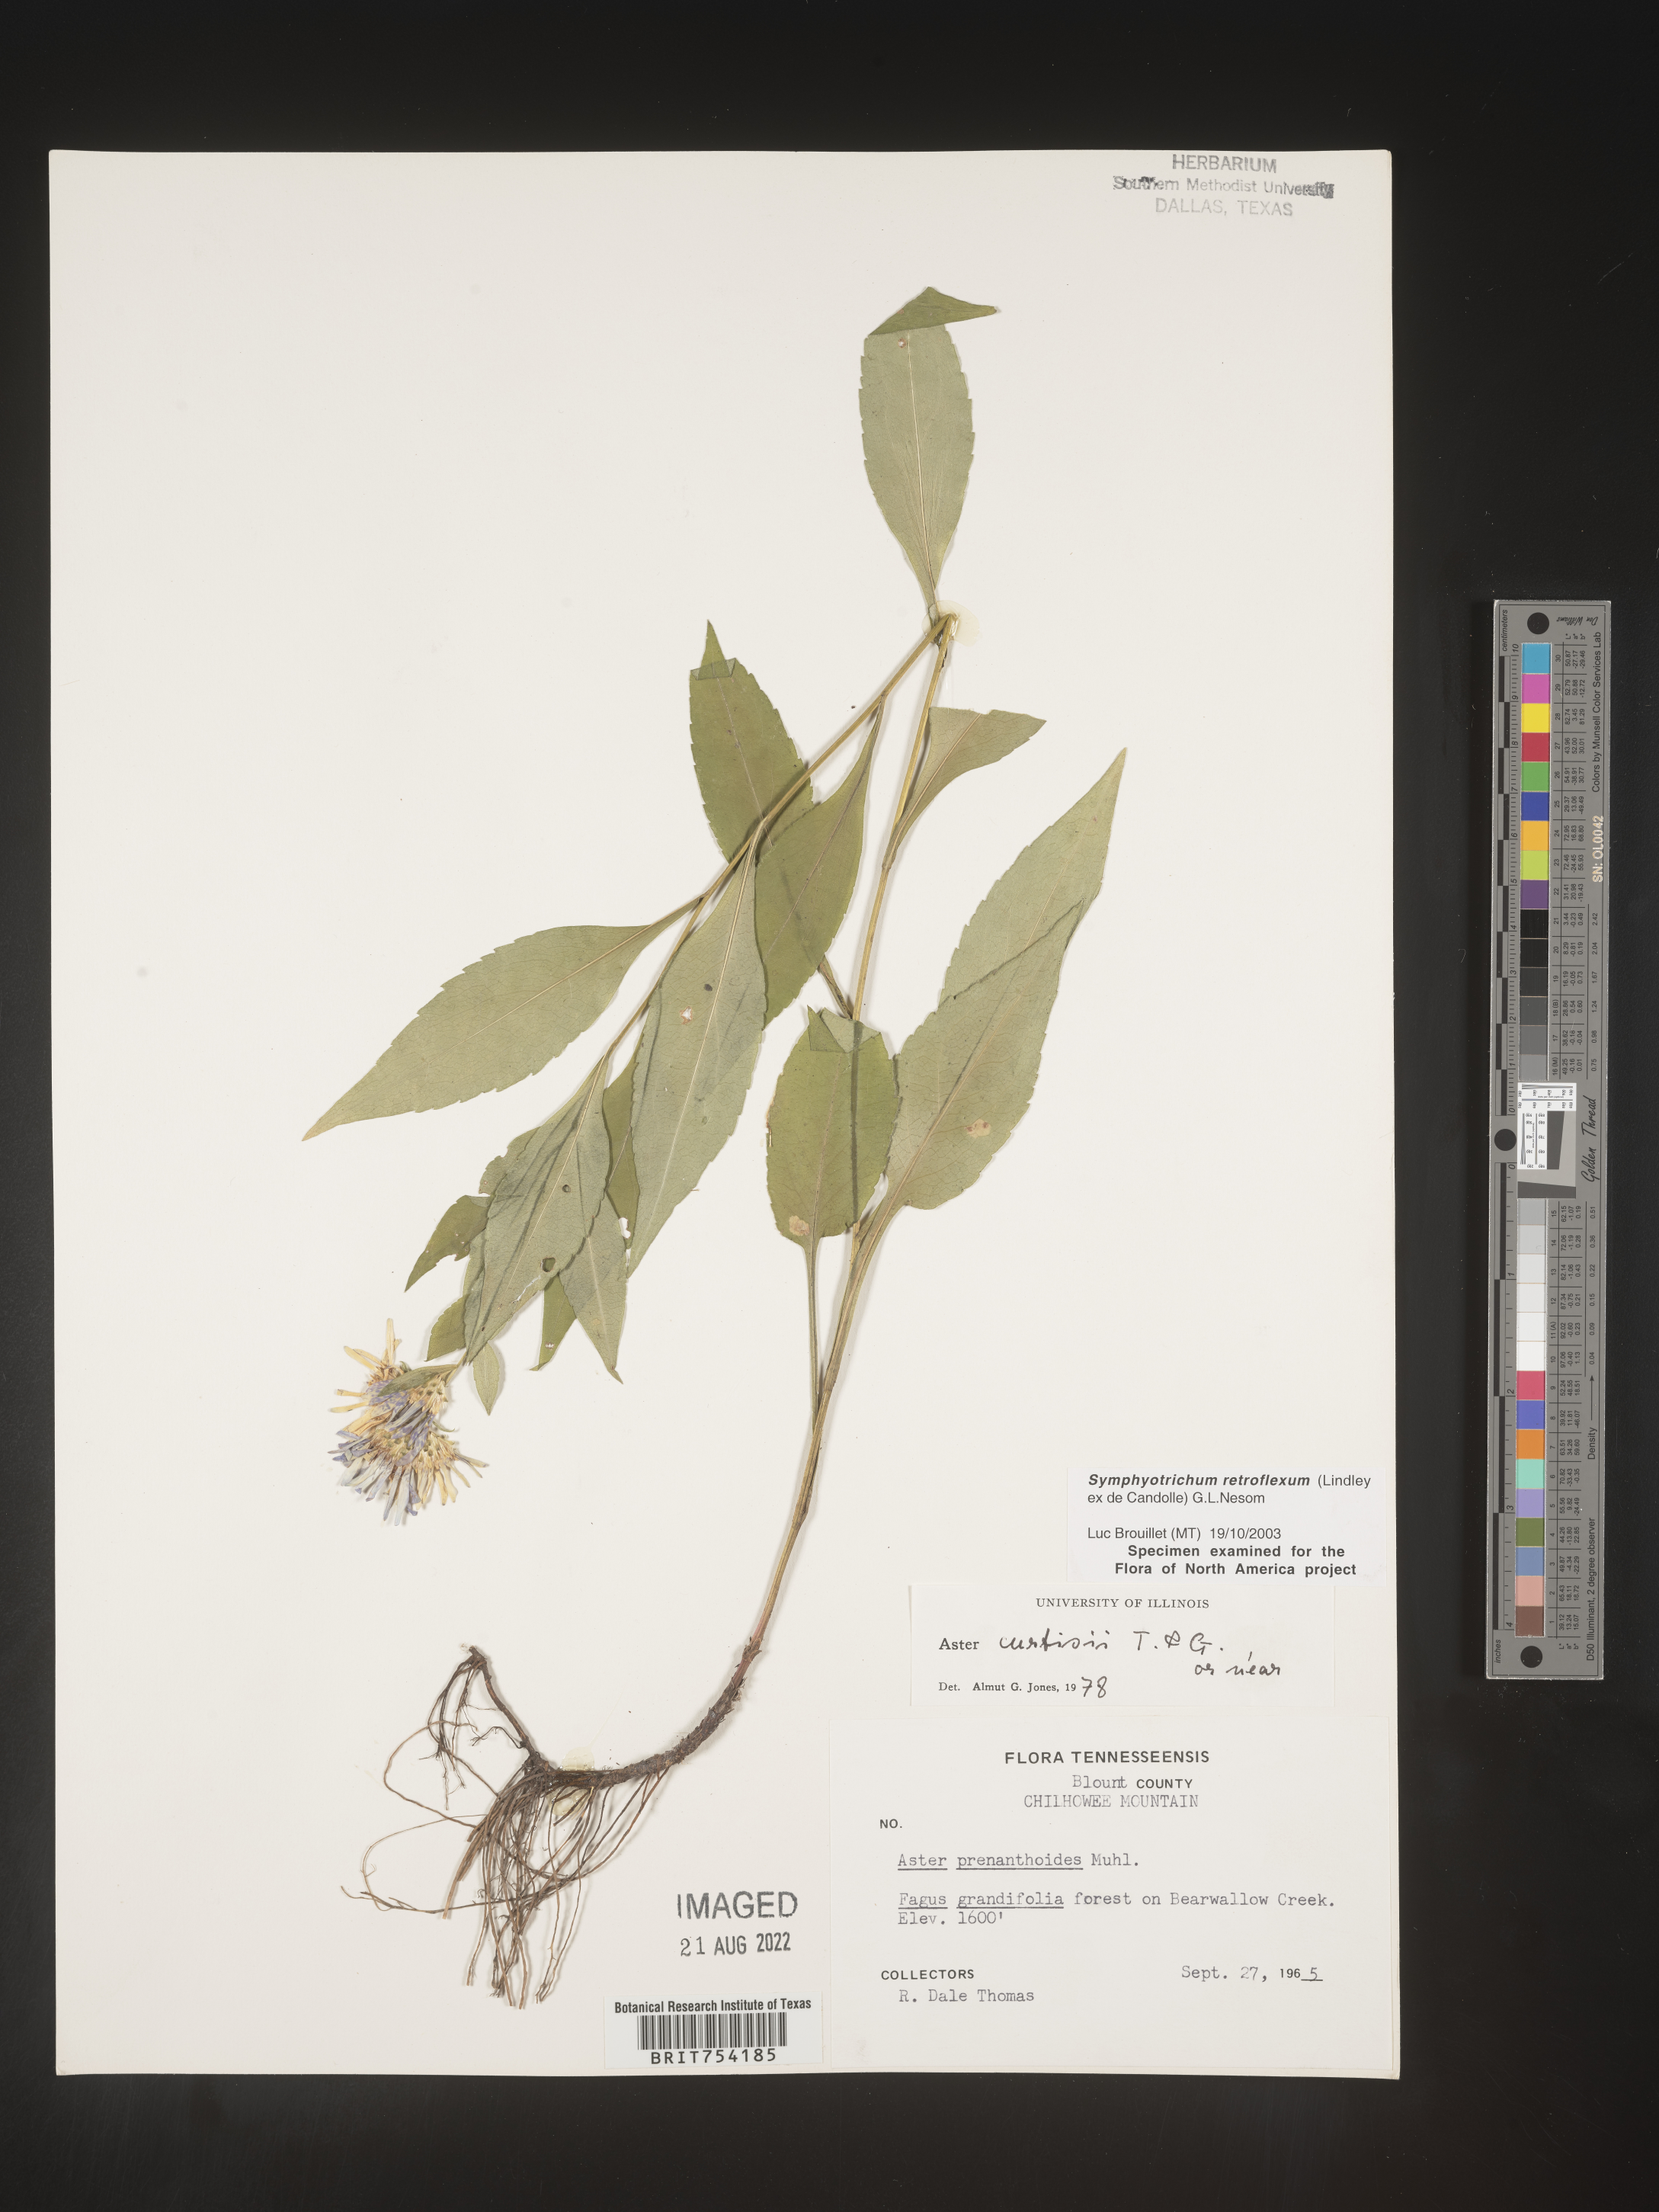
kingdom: Plantae
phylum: Tracheophyta
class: Magnoliopsida
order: Asterales
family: Asteraceae
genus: Symphyotrichum
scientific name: Symphyotrichum retroflexum
